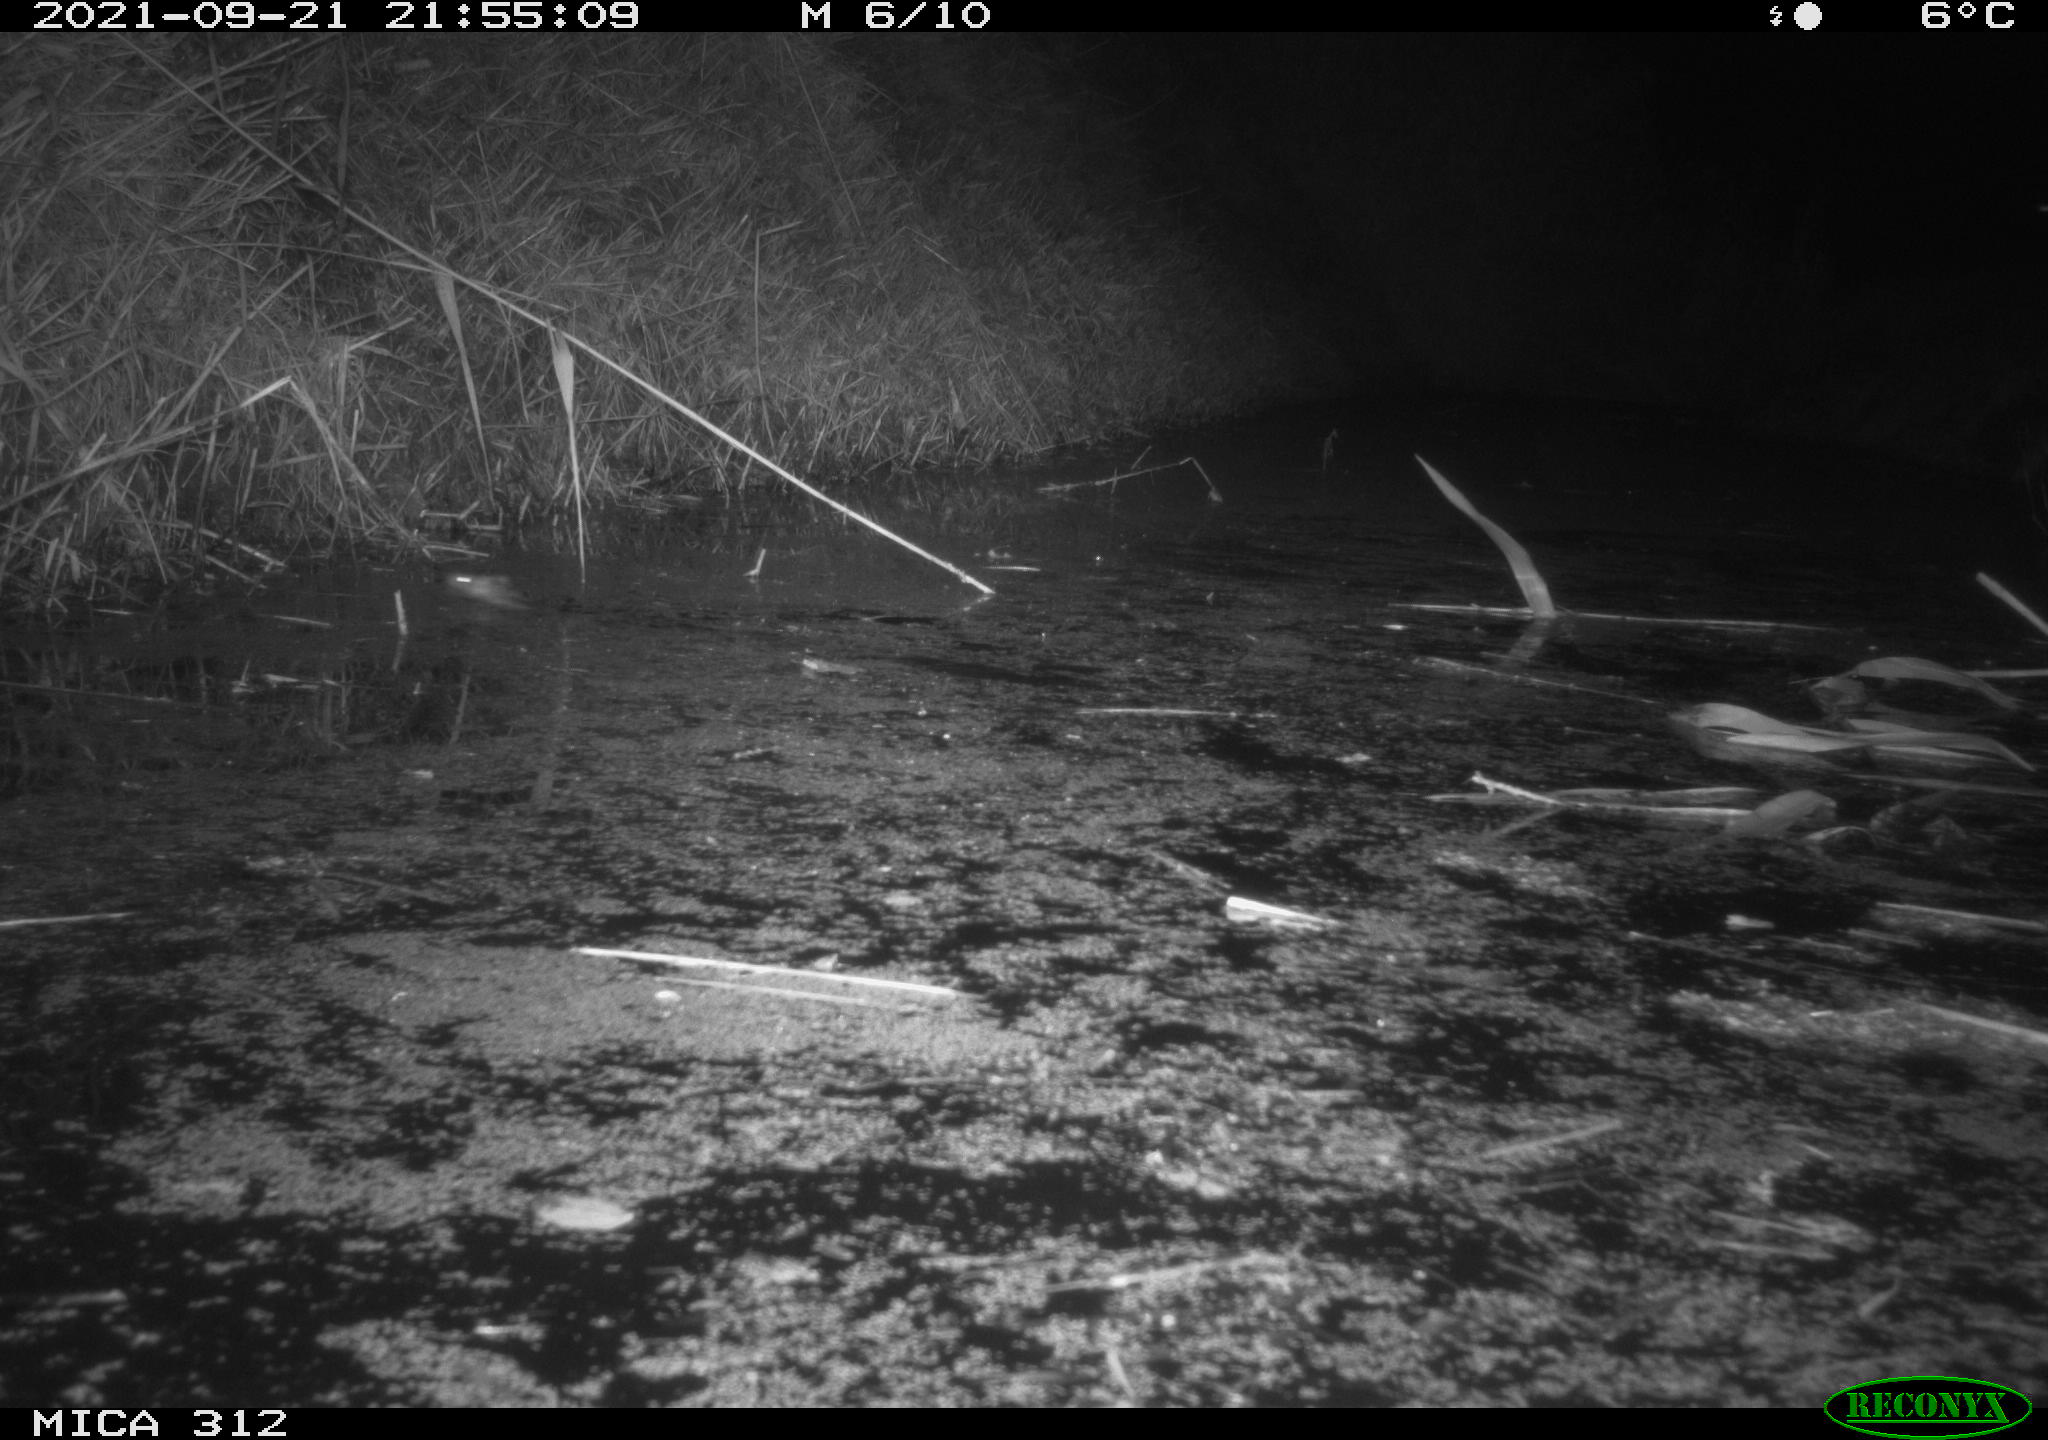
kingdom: Animalia
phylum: Chordata
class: Mammalia
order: Rodentia
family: Muridae
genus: Rattus
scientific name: Rattus norvegicus
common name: Brown rat
